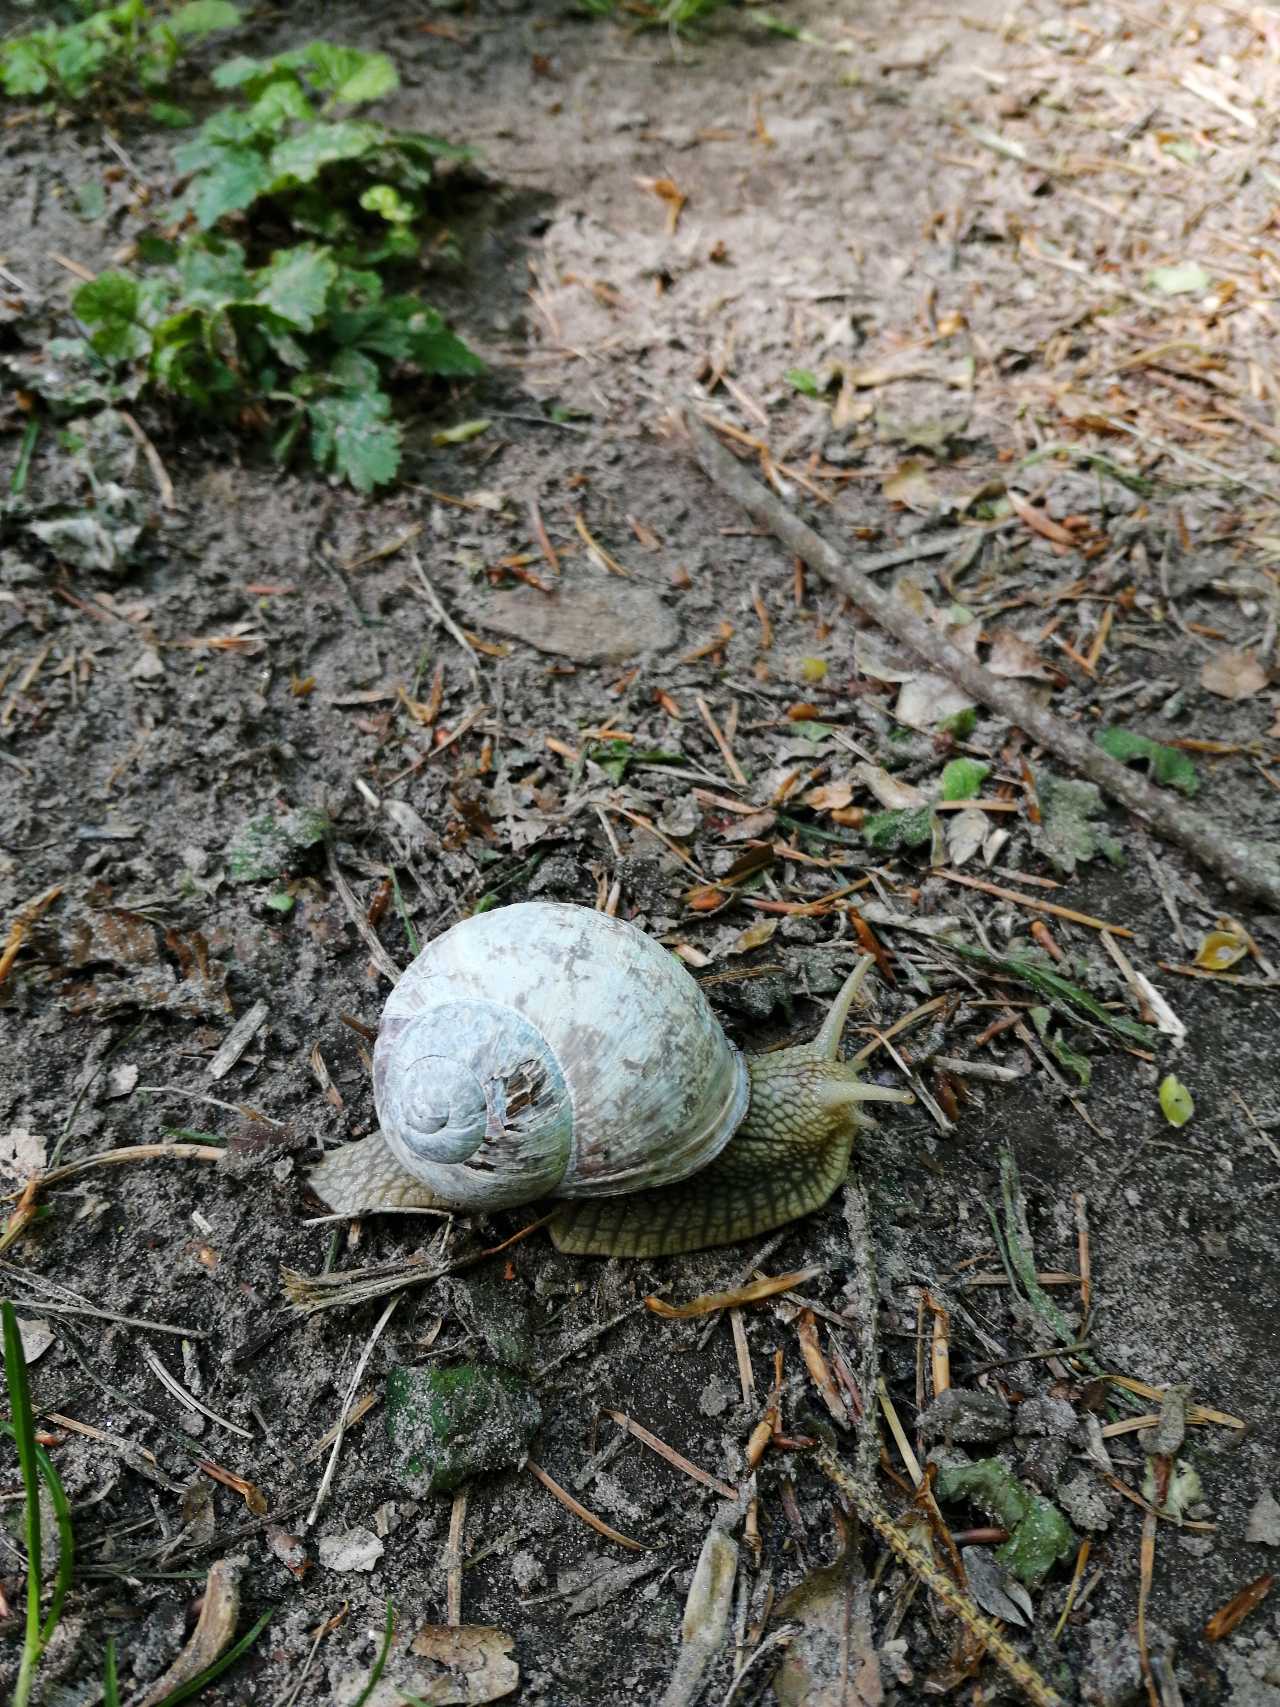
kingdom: Animalia
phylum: Mollusca
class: Gastropoda
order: Stylommatophora
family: Helicidae
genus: Helix
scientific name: Helix pomatia
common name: Vinbjergsnegl
